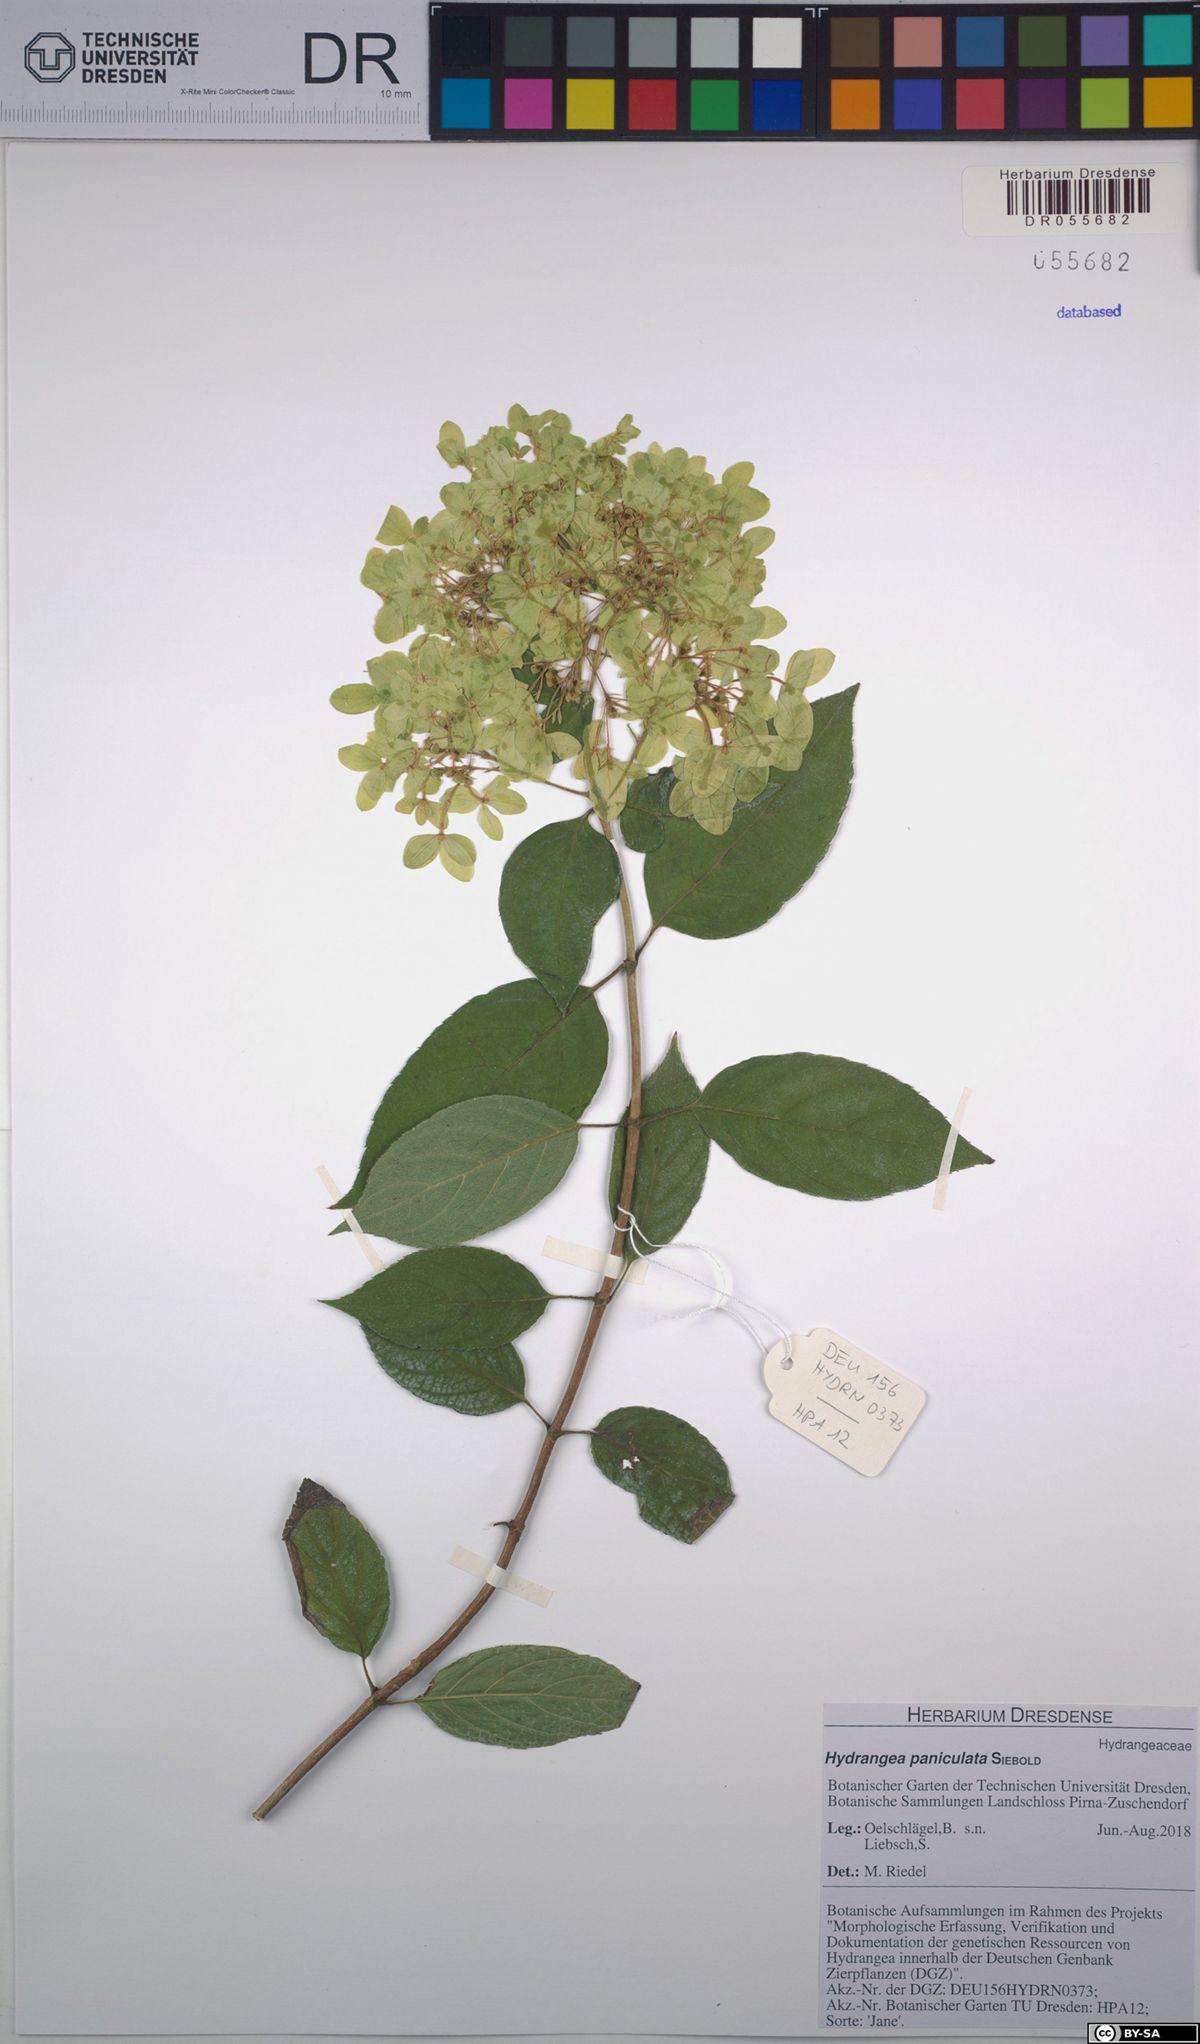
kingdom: Plantae
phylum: Tracheophyta
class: Magnoliopsida
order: Cornales
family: Hydrangeaceae
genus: Hydrangea
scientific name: Hydrangea paniculata
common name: Panicled hydrangea
